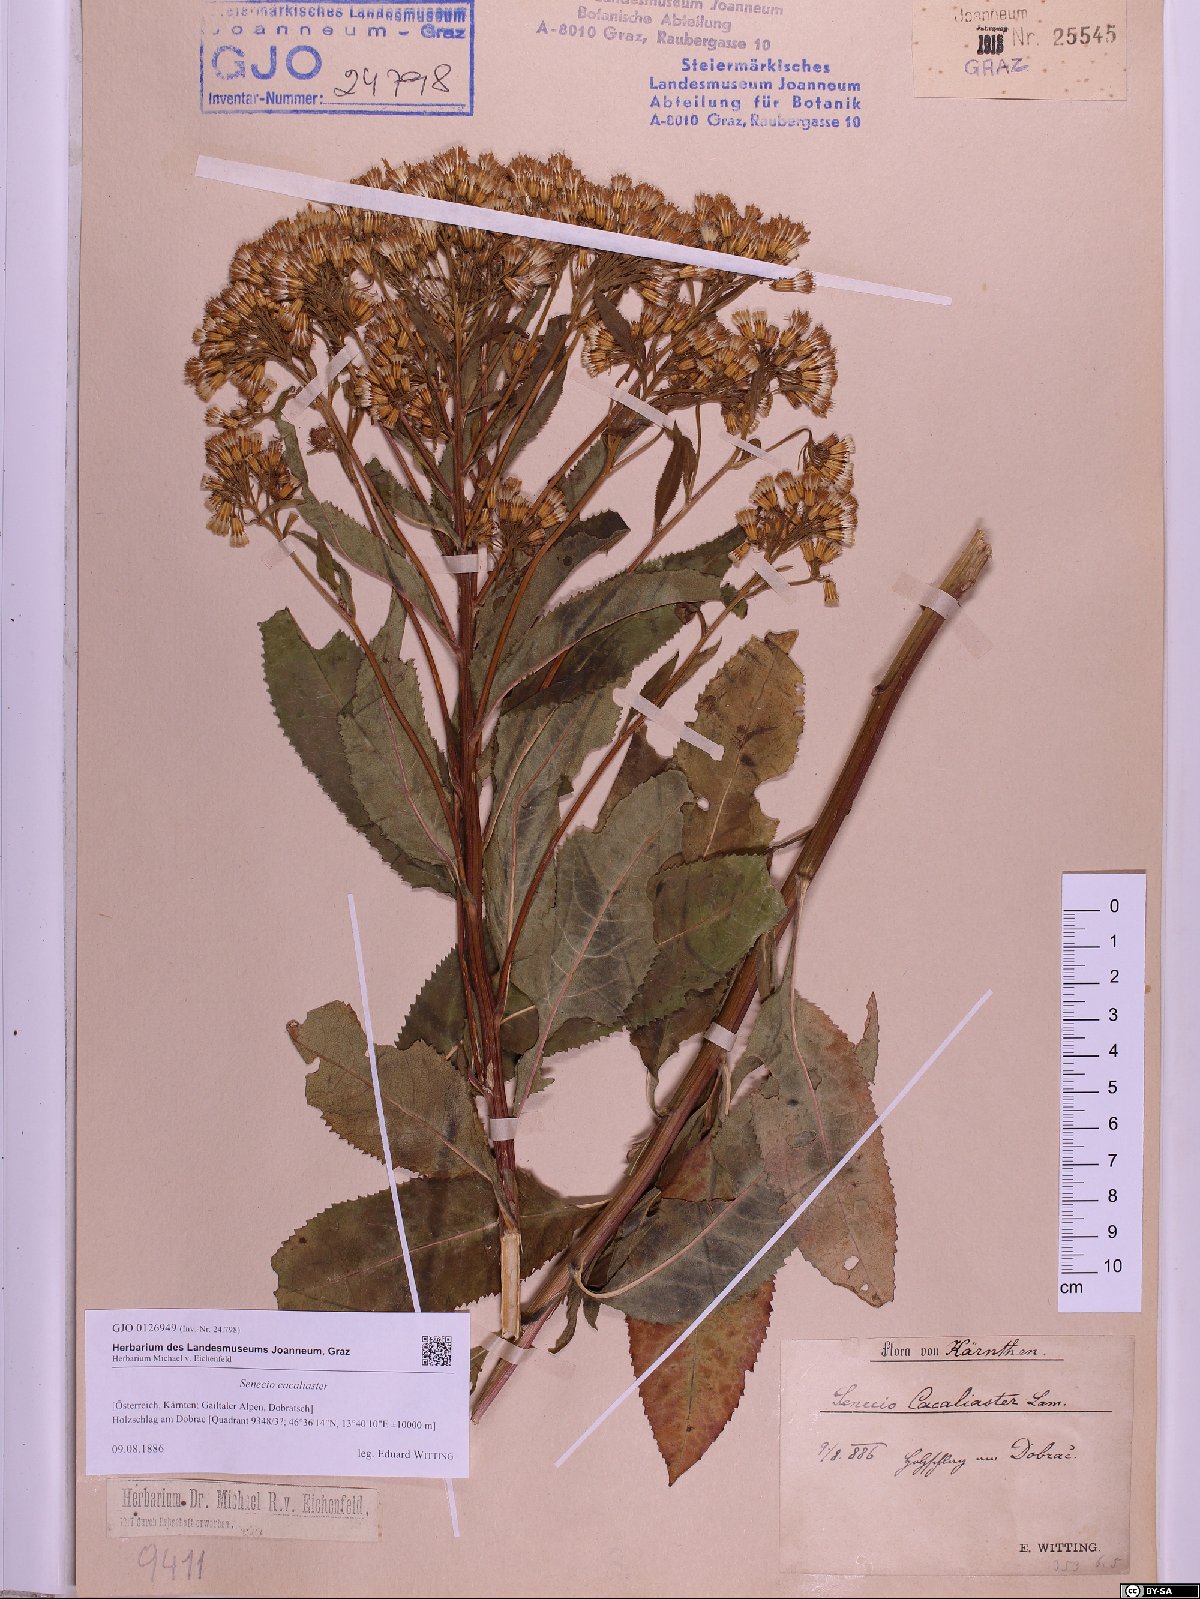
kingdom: Plantae
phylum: Tracheophyta
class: Magnoliopsida
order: Asterales
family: Asteraceae
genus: Senecio
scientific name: Senecio cacaliaster
